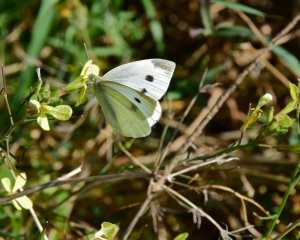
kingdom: Animalia
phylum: Arthropoda
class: Insecta
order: Lepidoptera
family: Pieridae
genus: Pieris
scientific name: Pieris rapae
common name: Cabbage White
